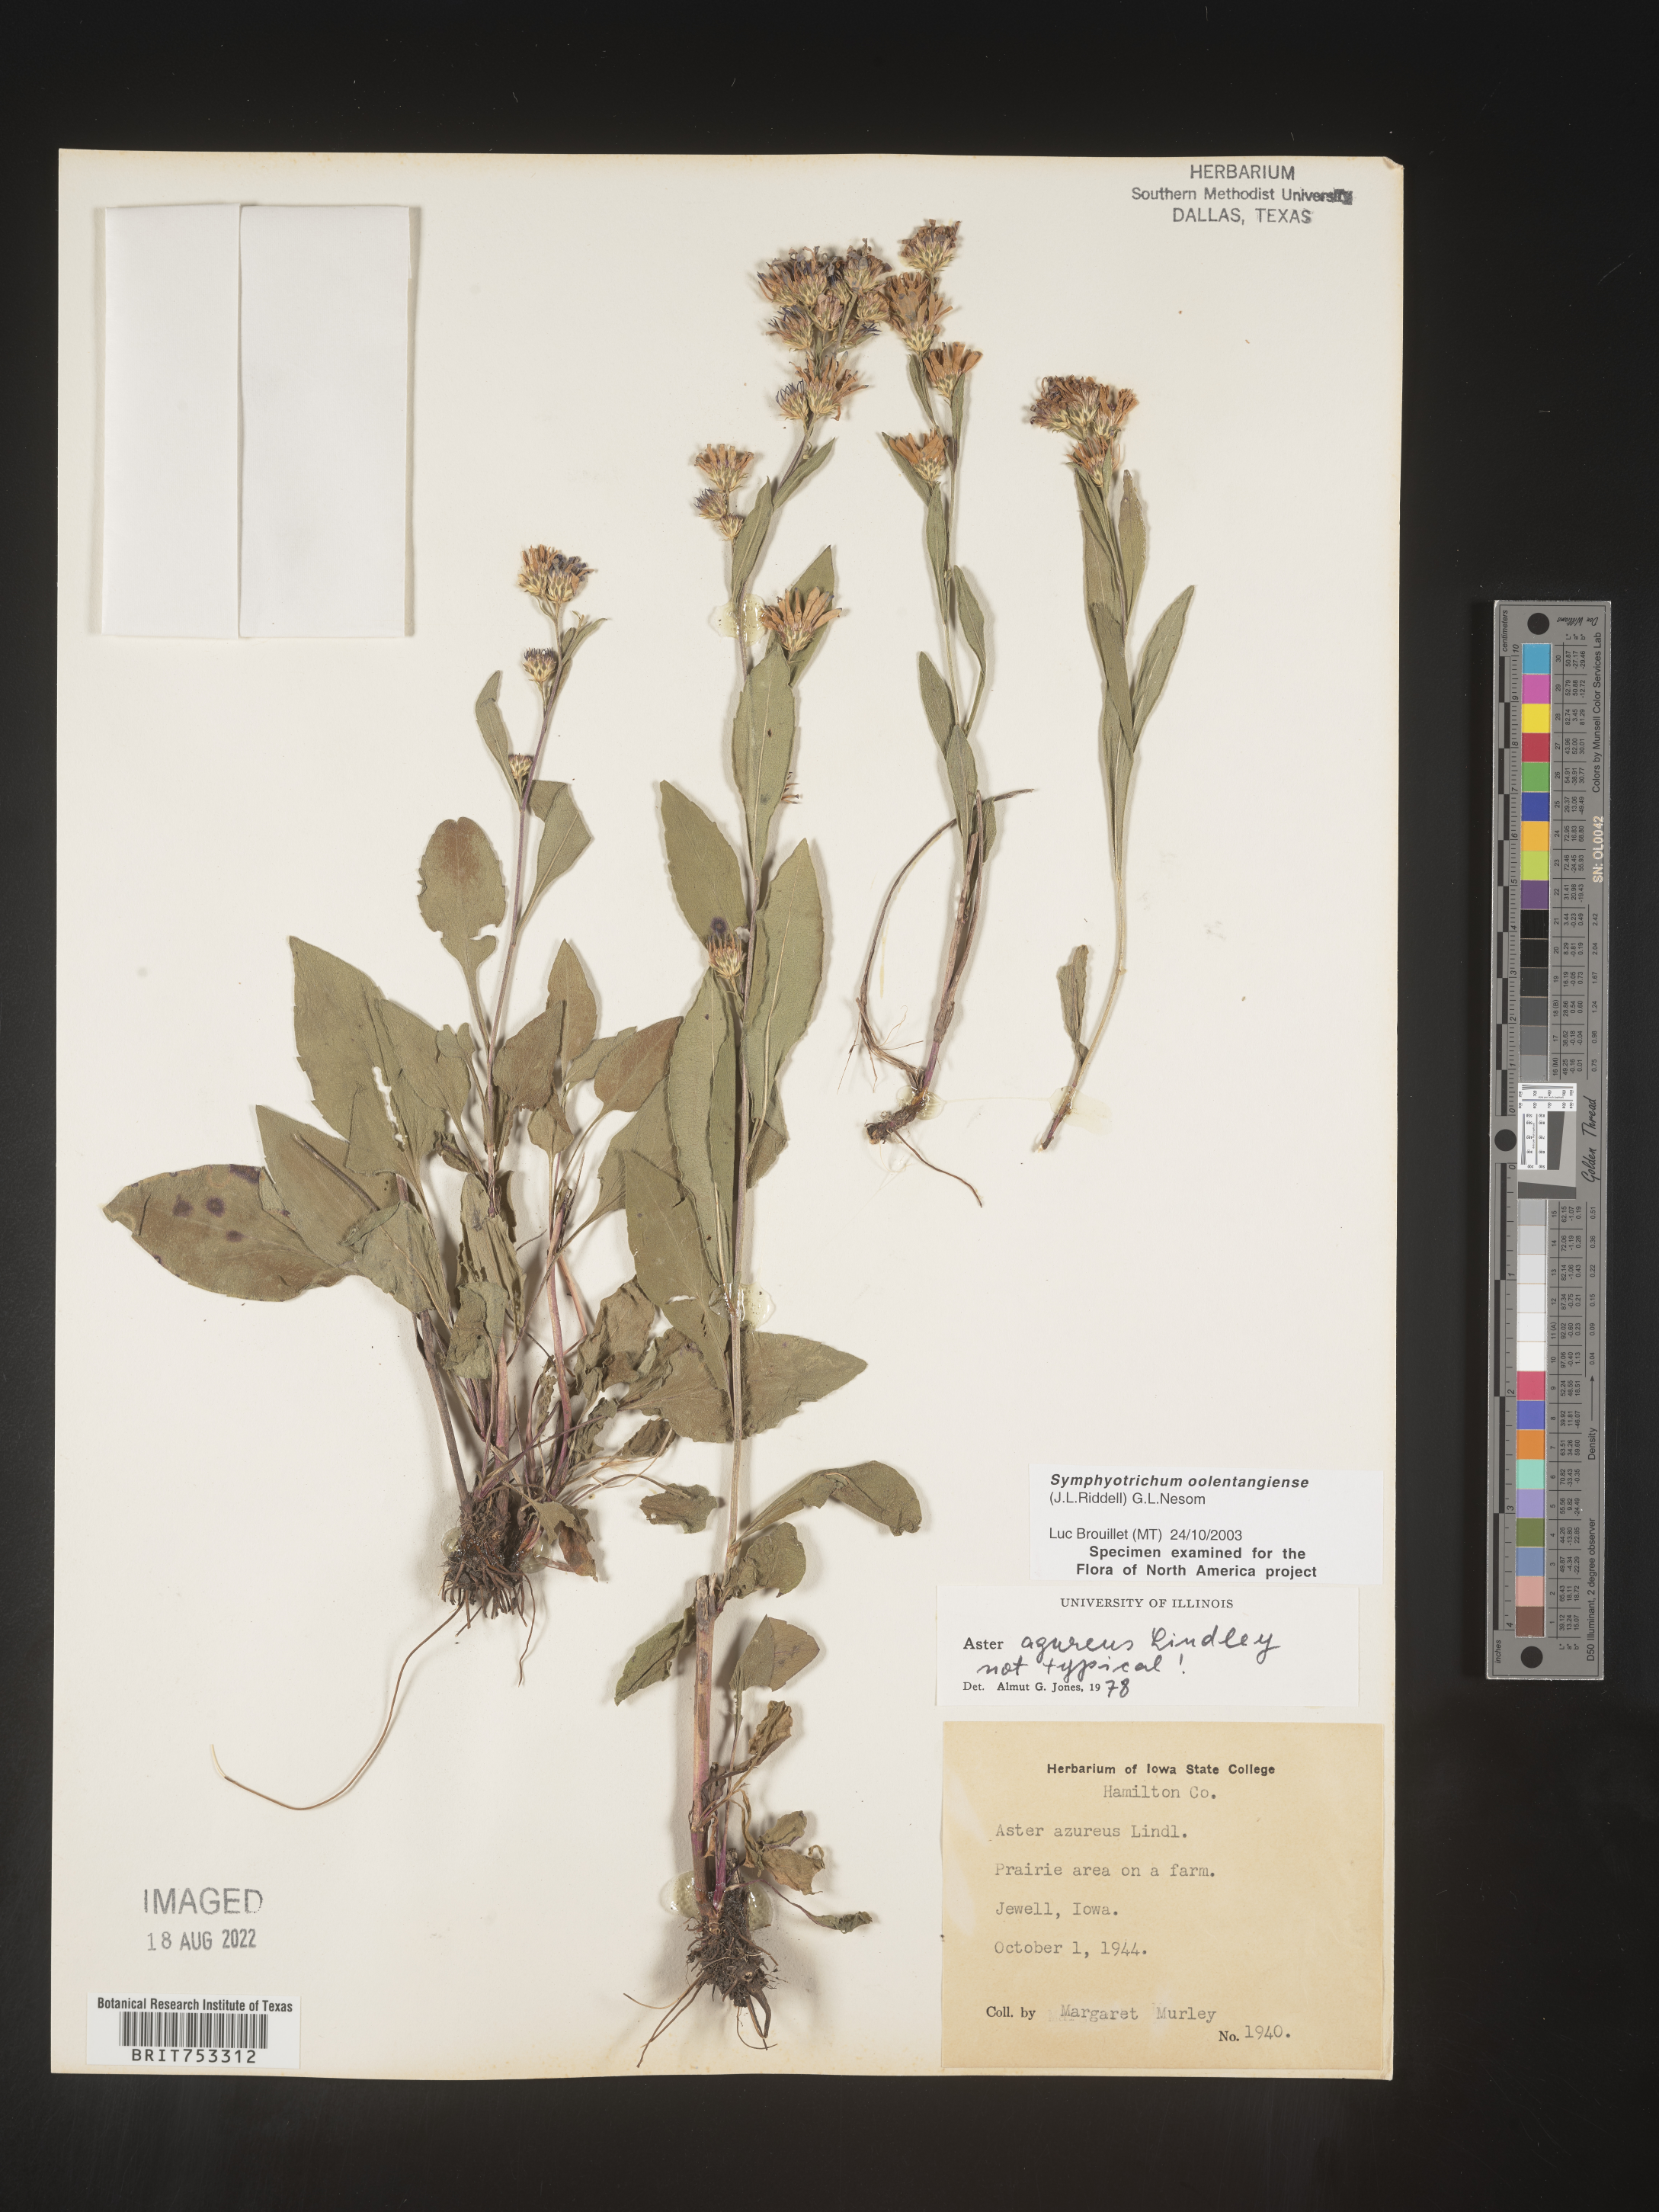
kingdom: Plantae
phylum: Tracheophyta
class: Magnoliopsida
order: Asterales
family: Asteraceae
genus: Symphyotrichum
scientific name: Symphyotrichum oolentangiense
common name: Azure aster
